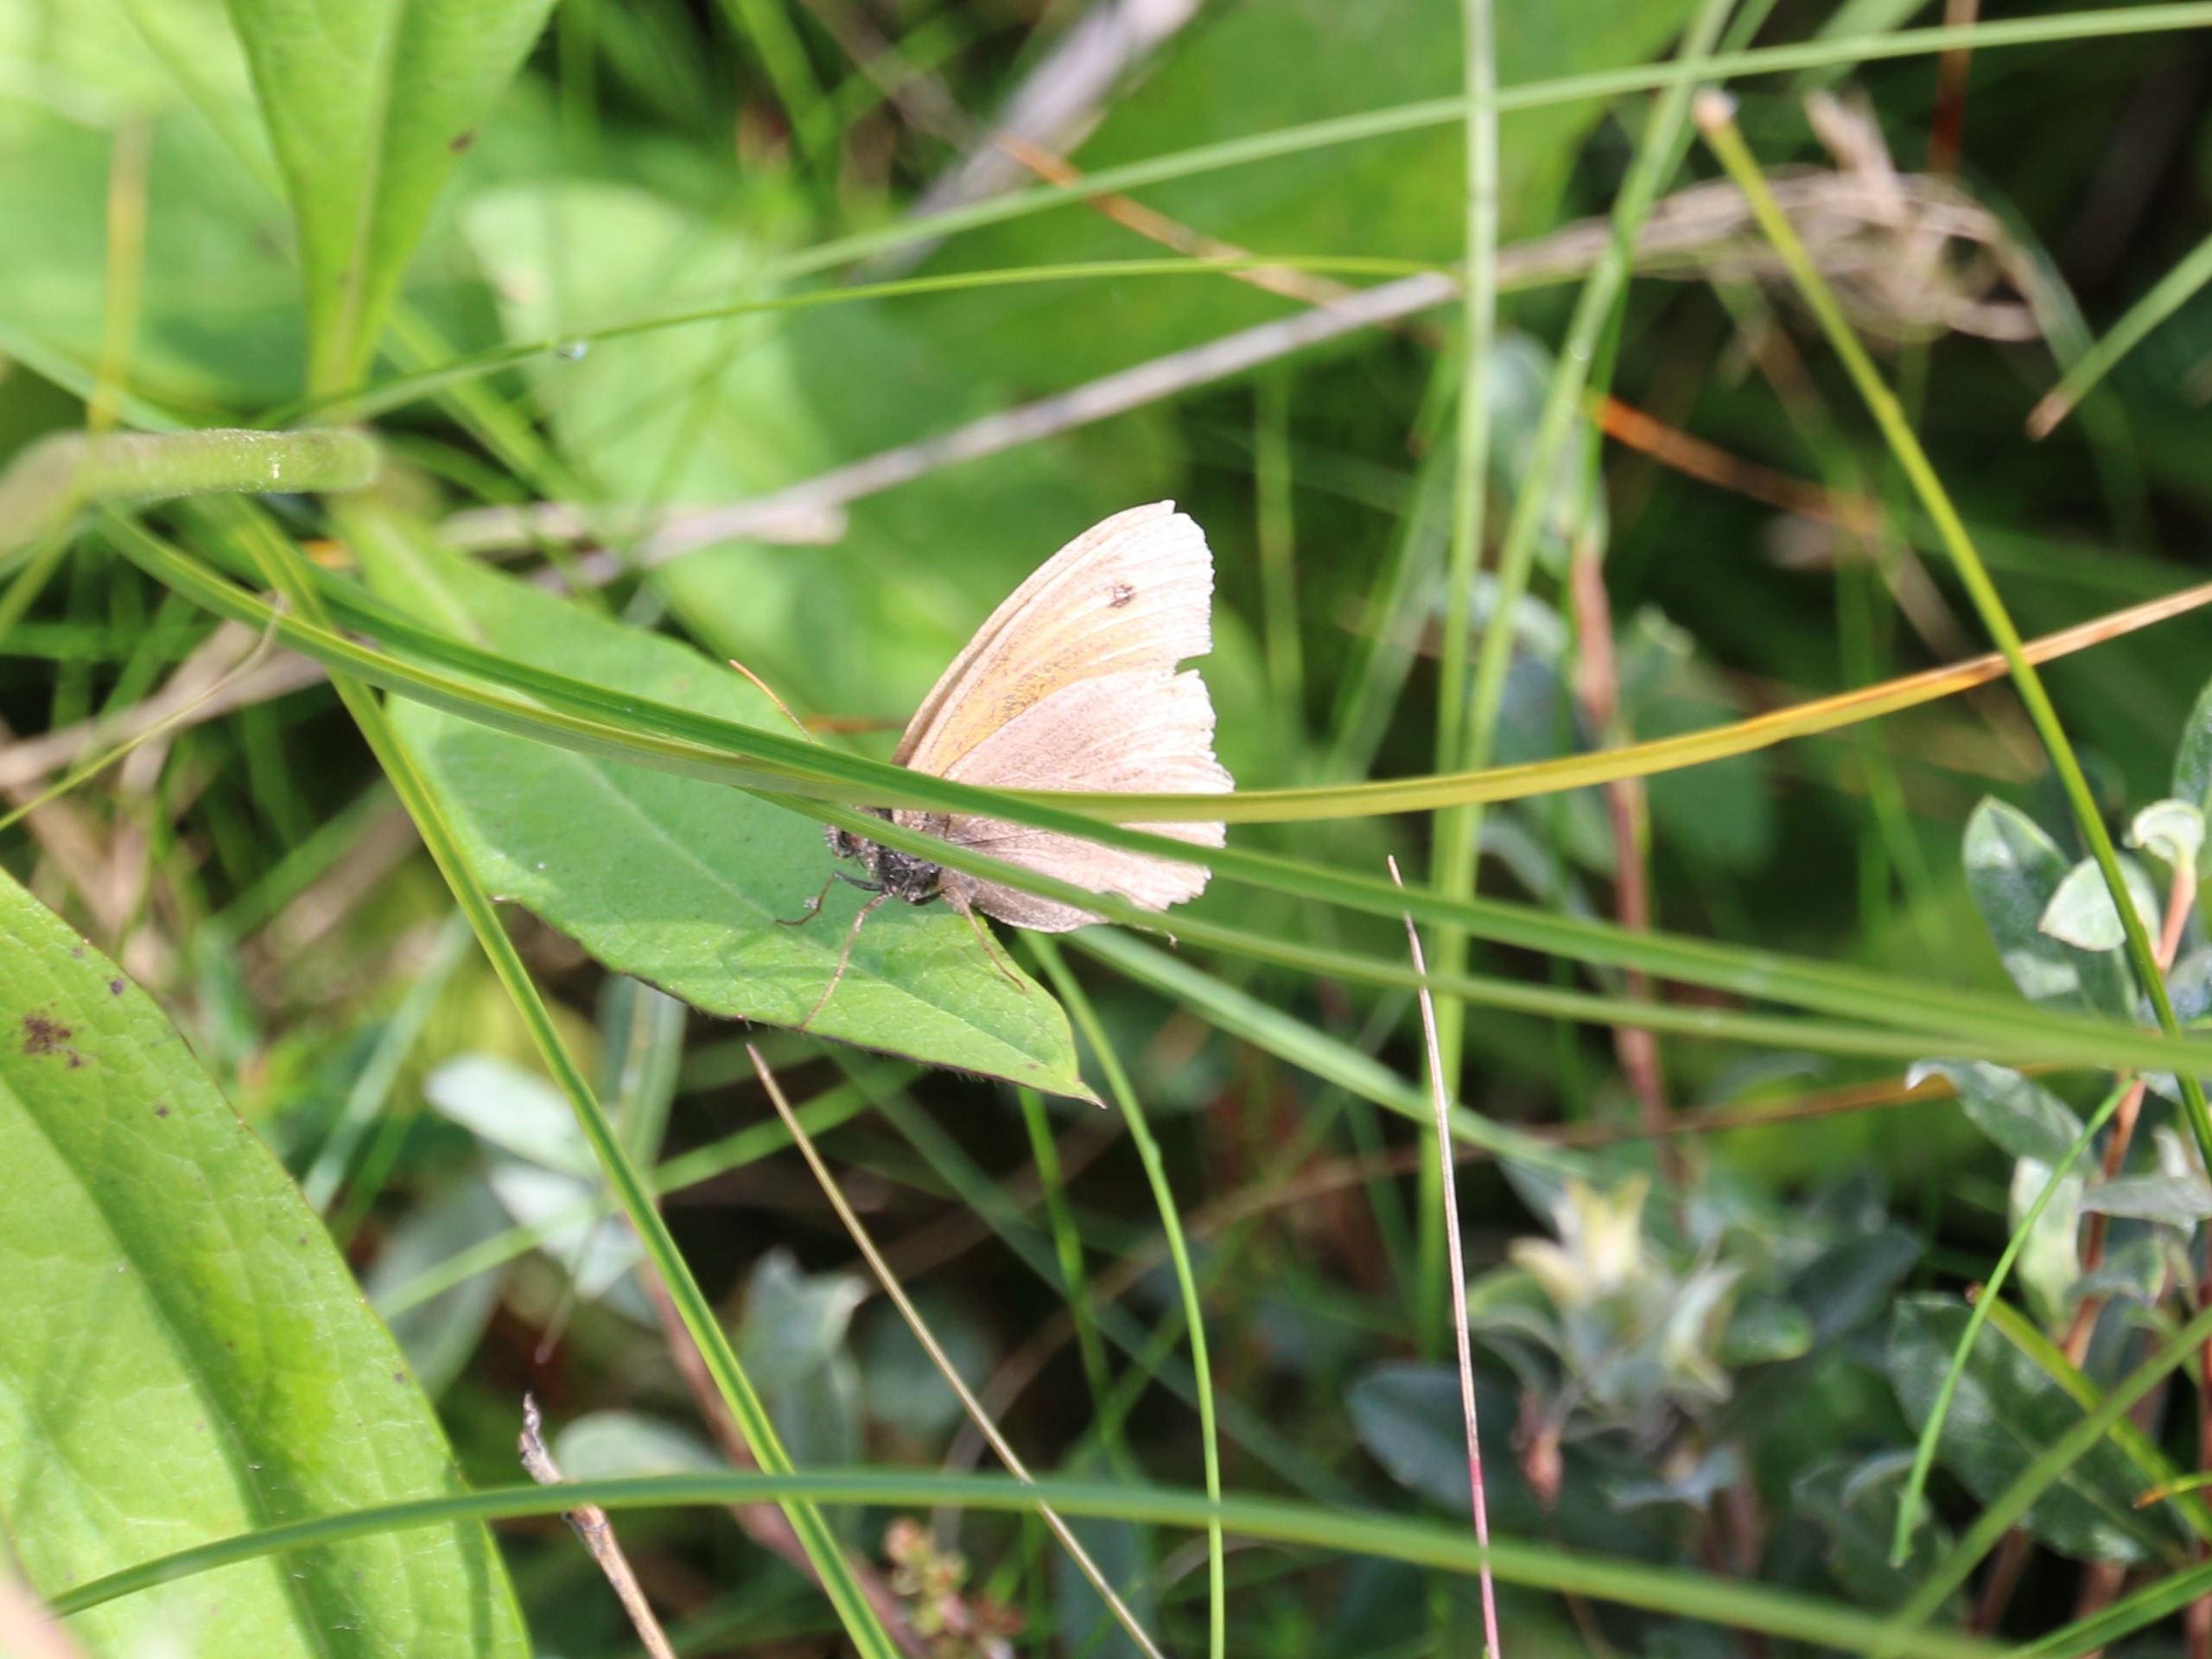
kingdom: Animalia
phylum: Arthropoda
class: Insecta
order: Lepidoptera
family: Nymphalidae
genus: Maniola
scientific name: Maniola jurtina
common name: Græsrandøje
